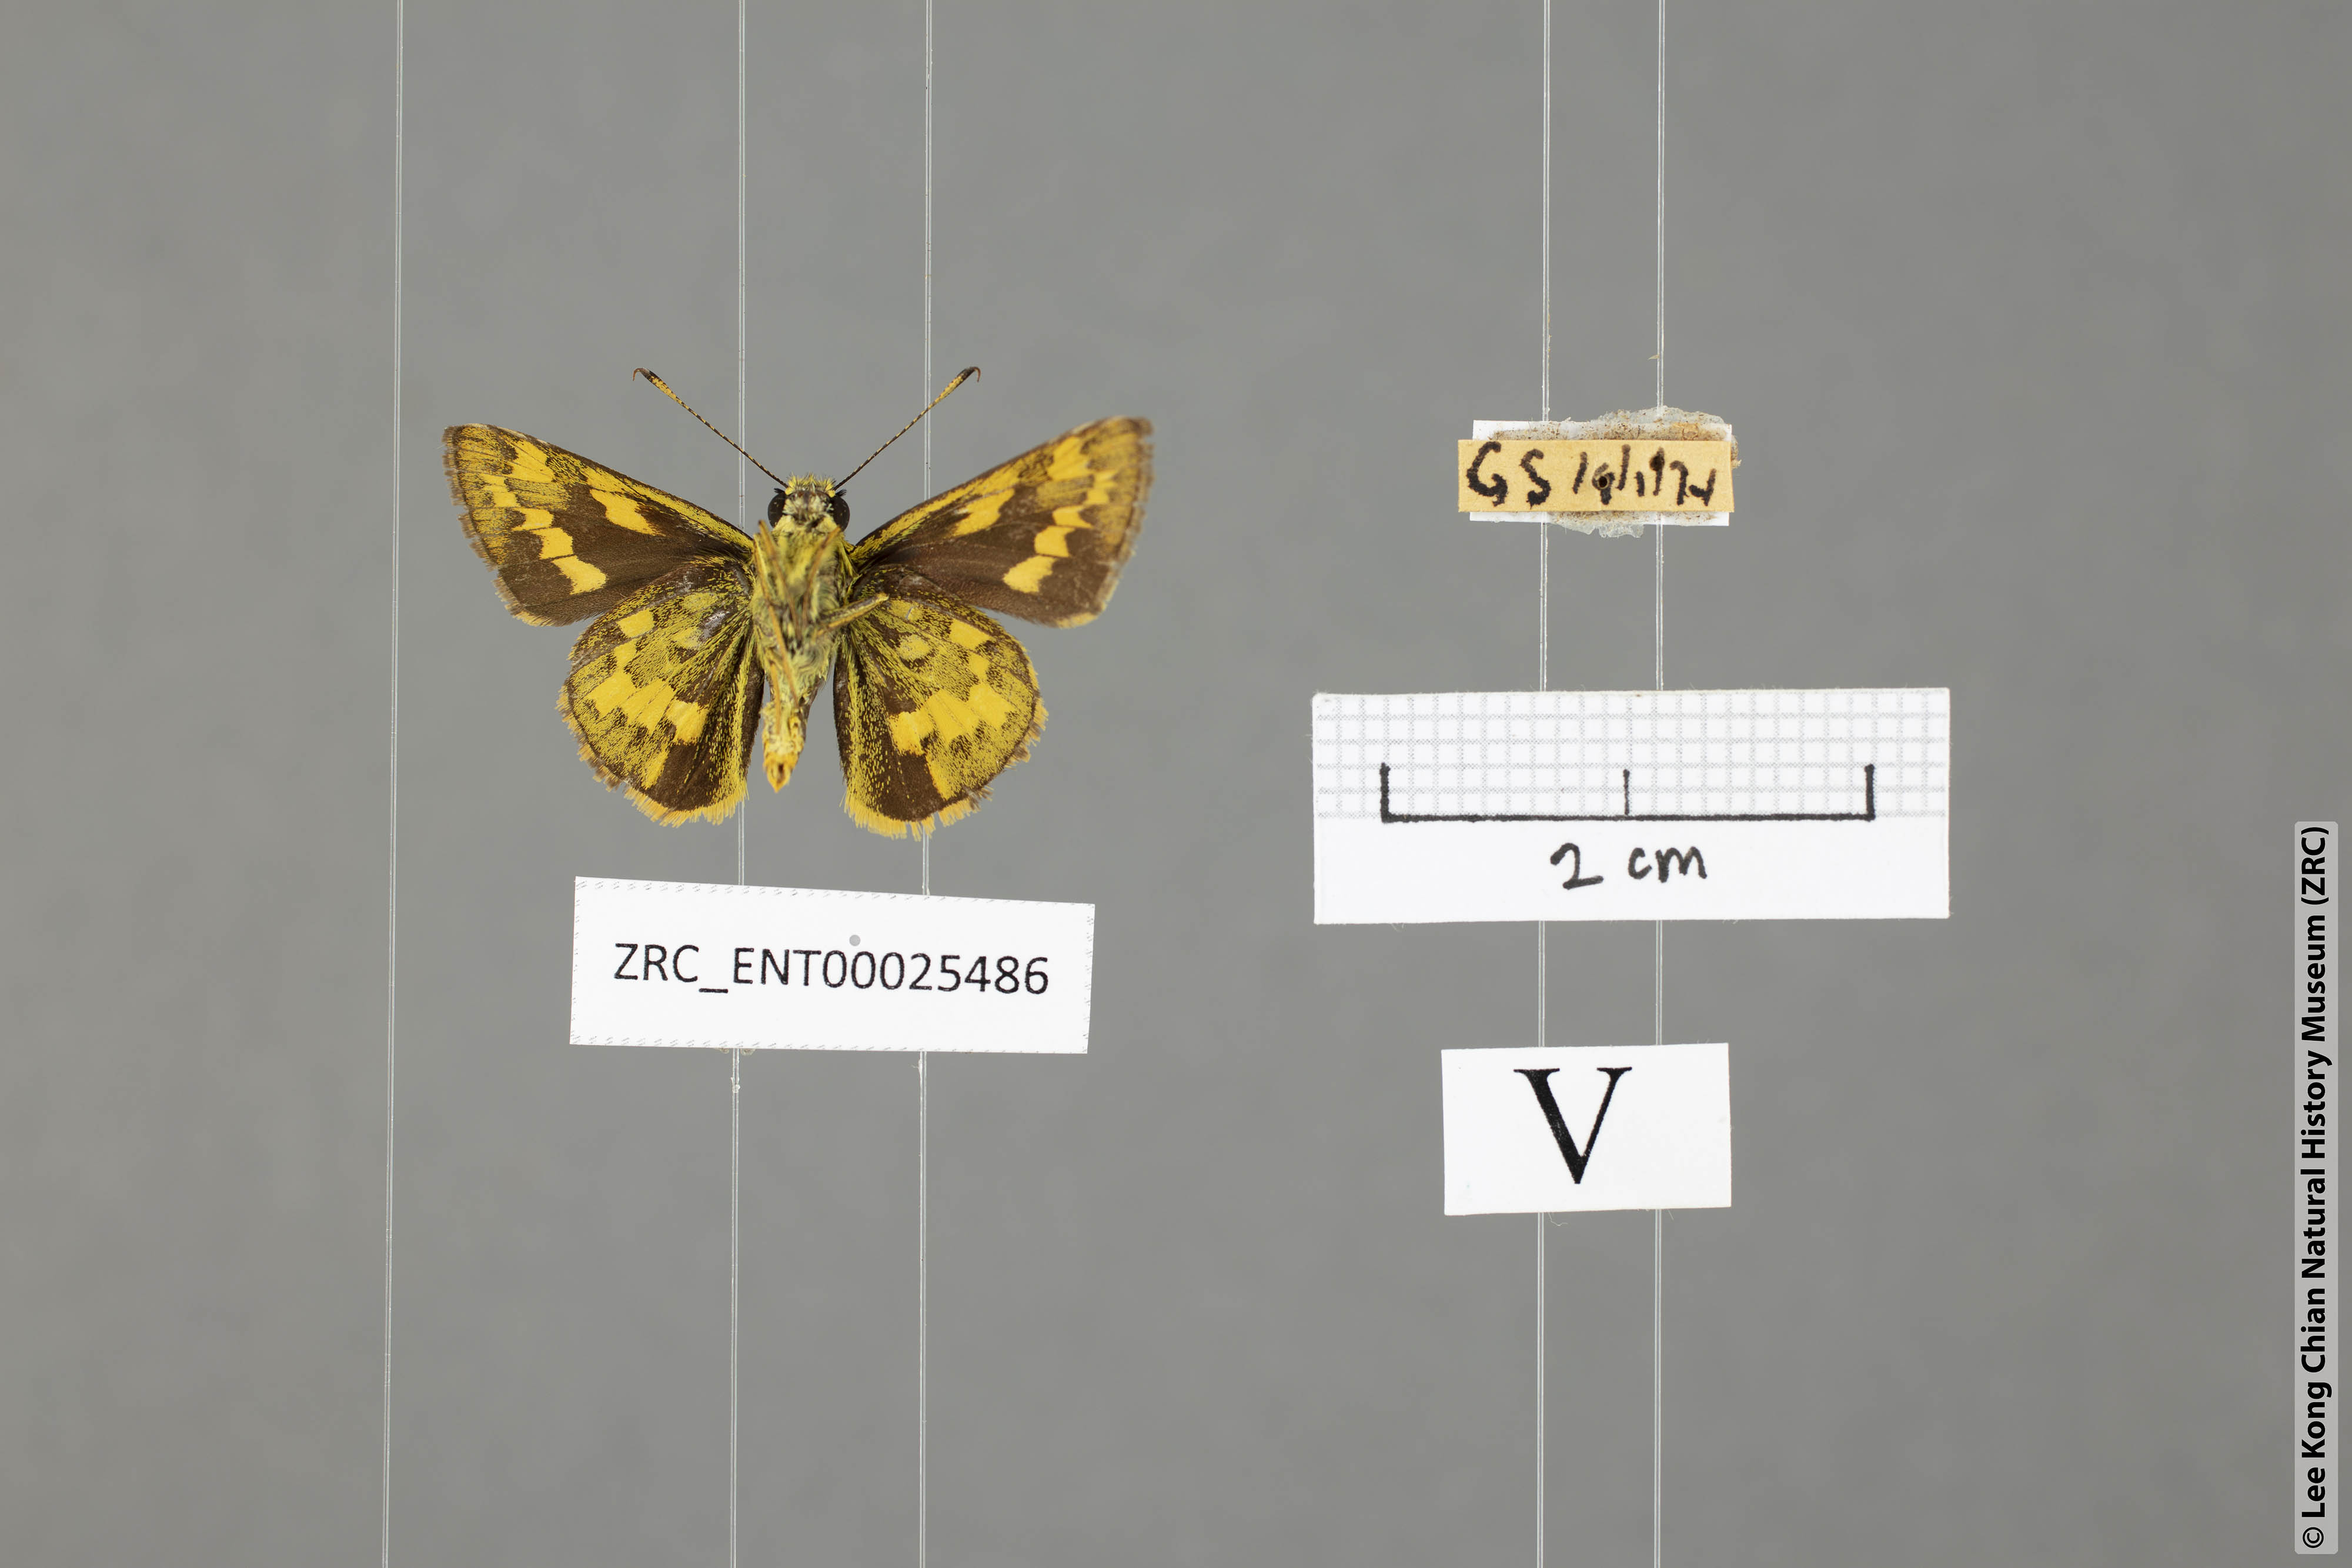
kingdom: Animalia
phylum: Arthropoda
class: Insecta
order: Lepidoptera
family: Hesperiidae
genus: Potanthus
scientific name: Potanthus trachala
